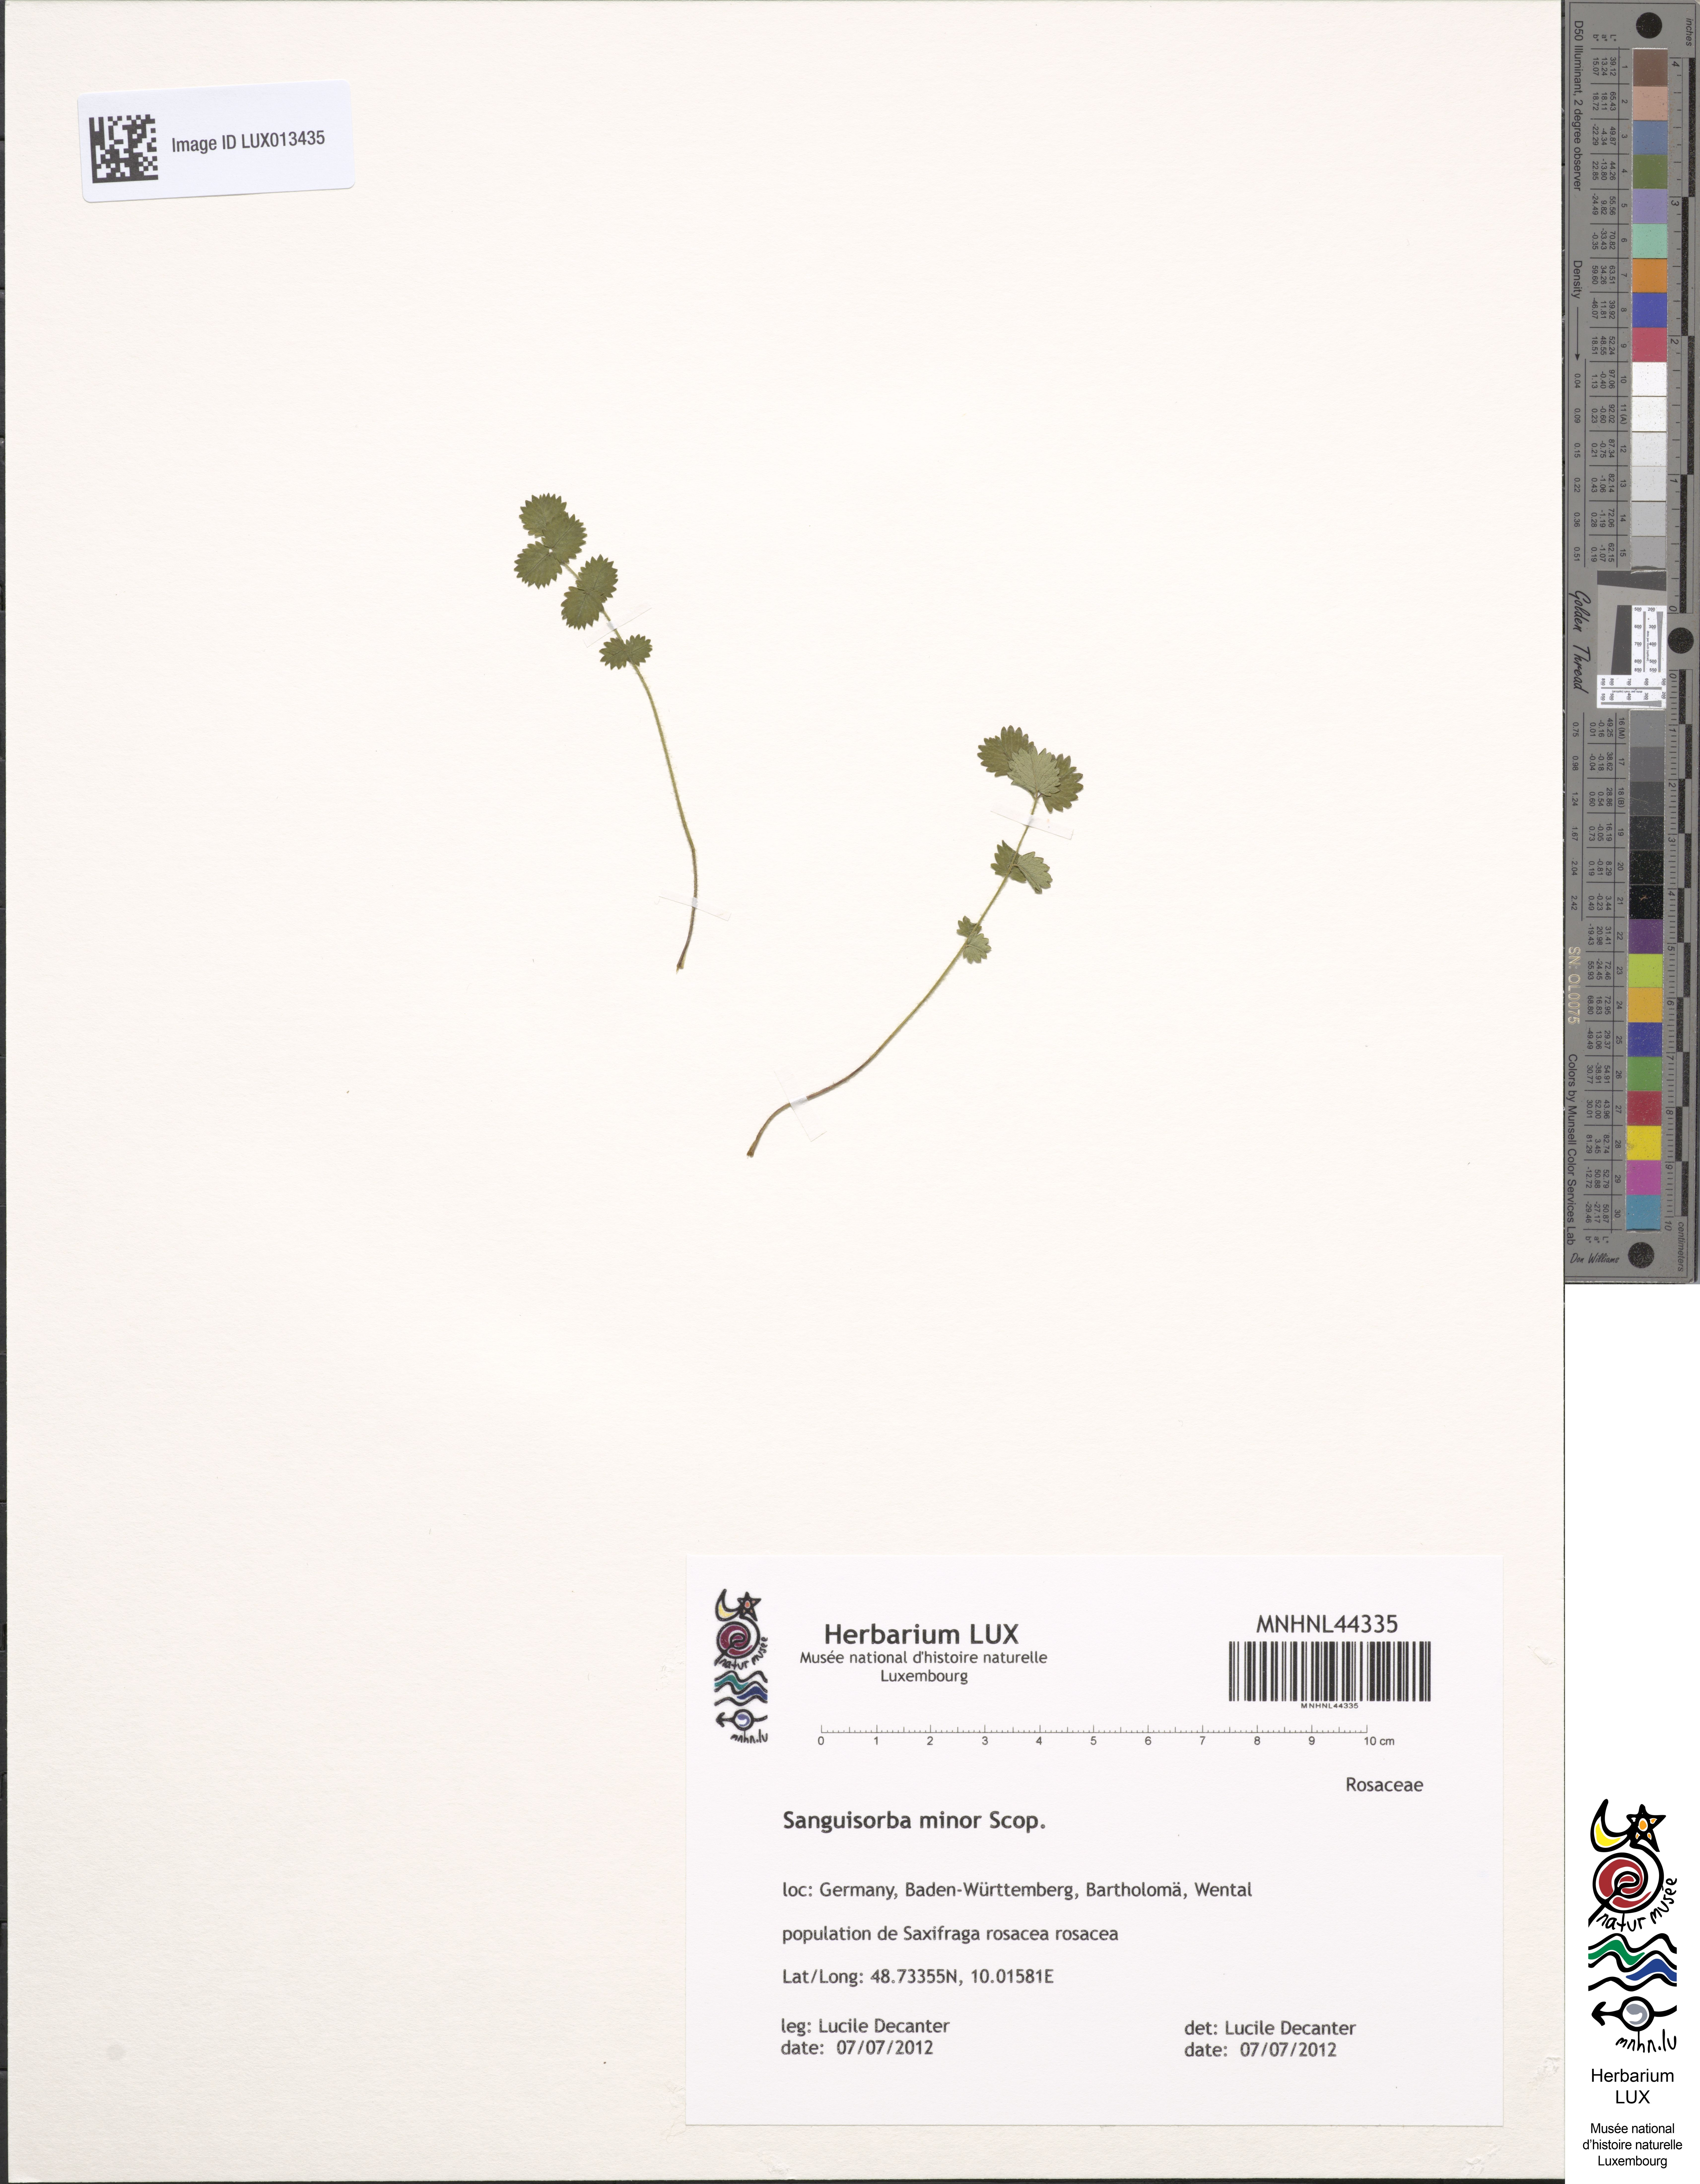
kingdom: Plantae
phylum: Tracheophyta
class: Magnoliopsida
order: Rosales
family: Rosaceae
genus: Poterium
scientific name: Poterium sanguisorba
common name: Salad burnet
